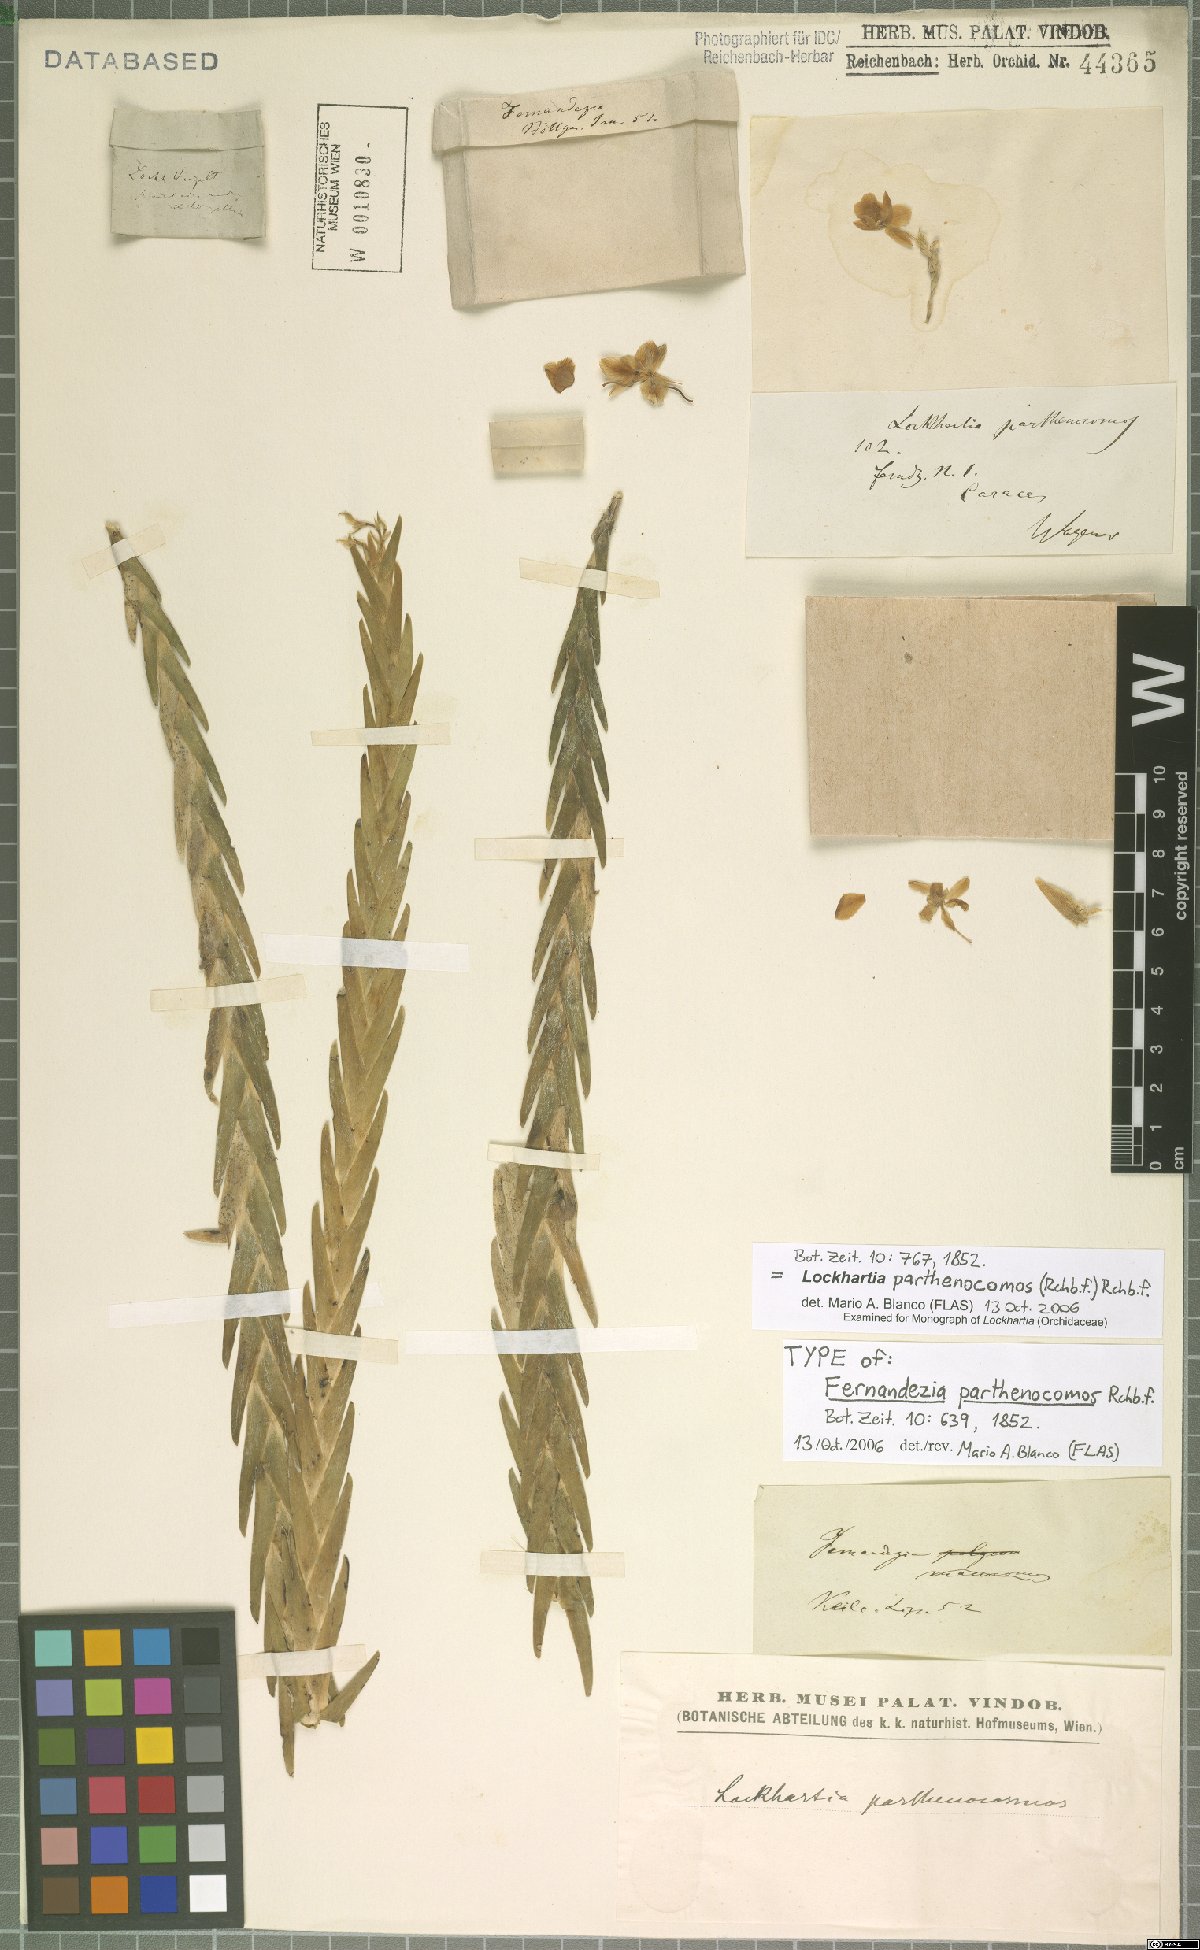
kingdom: Plantae
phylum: Tracheophyta
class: Liliopsida
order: Asparagales
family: Orchidaceae
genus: Lockhartia
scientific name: Lockhartia parthenocomos
